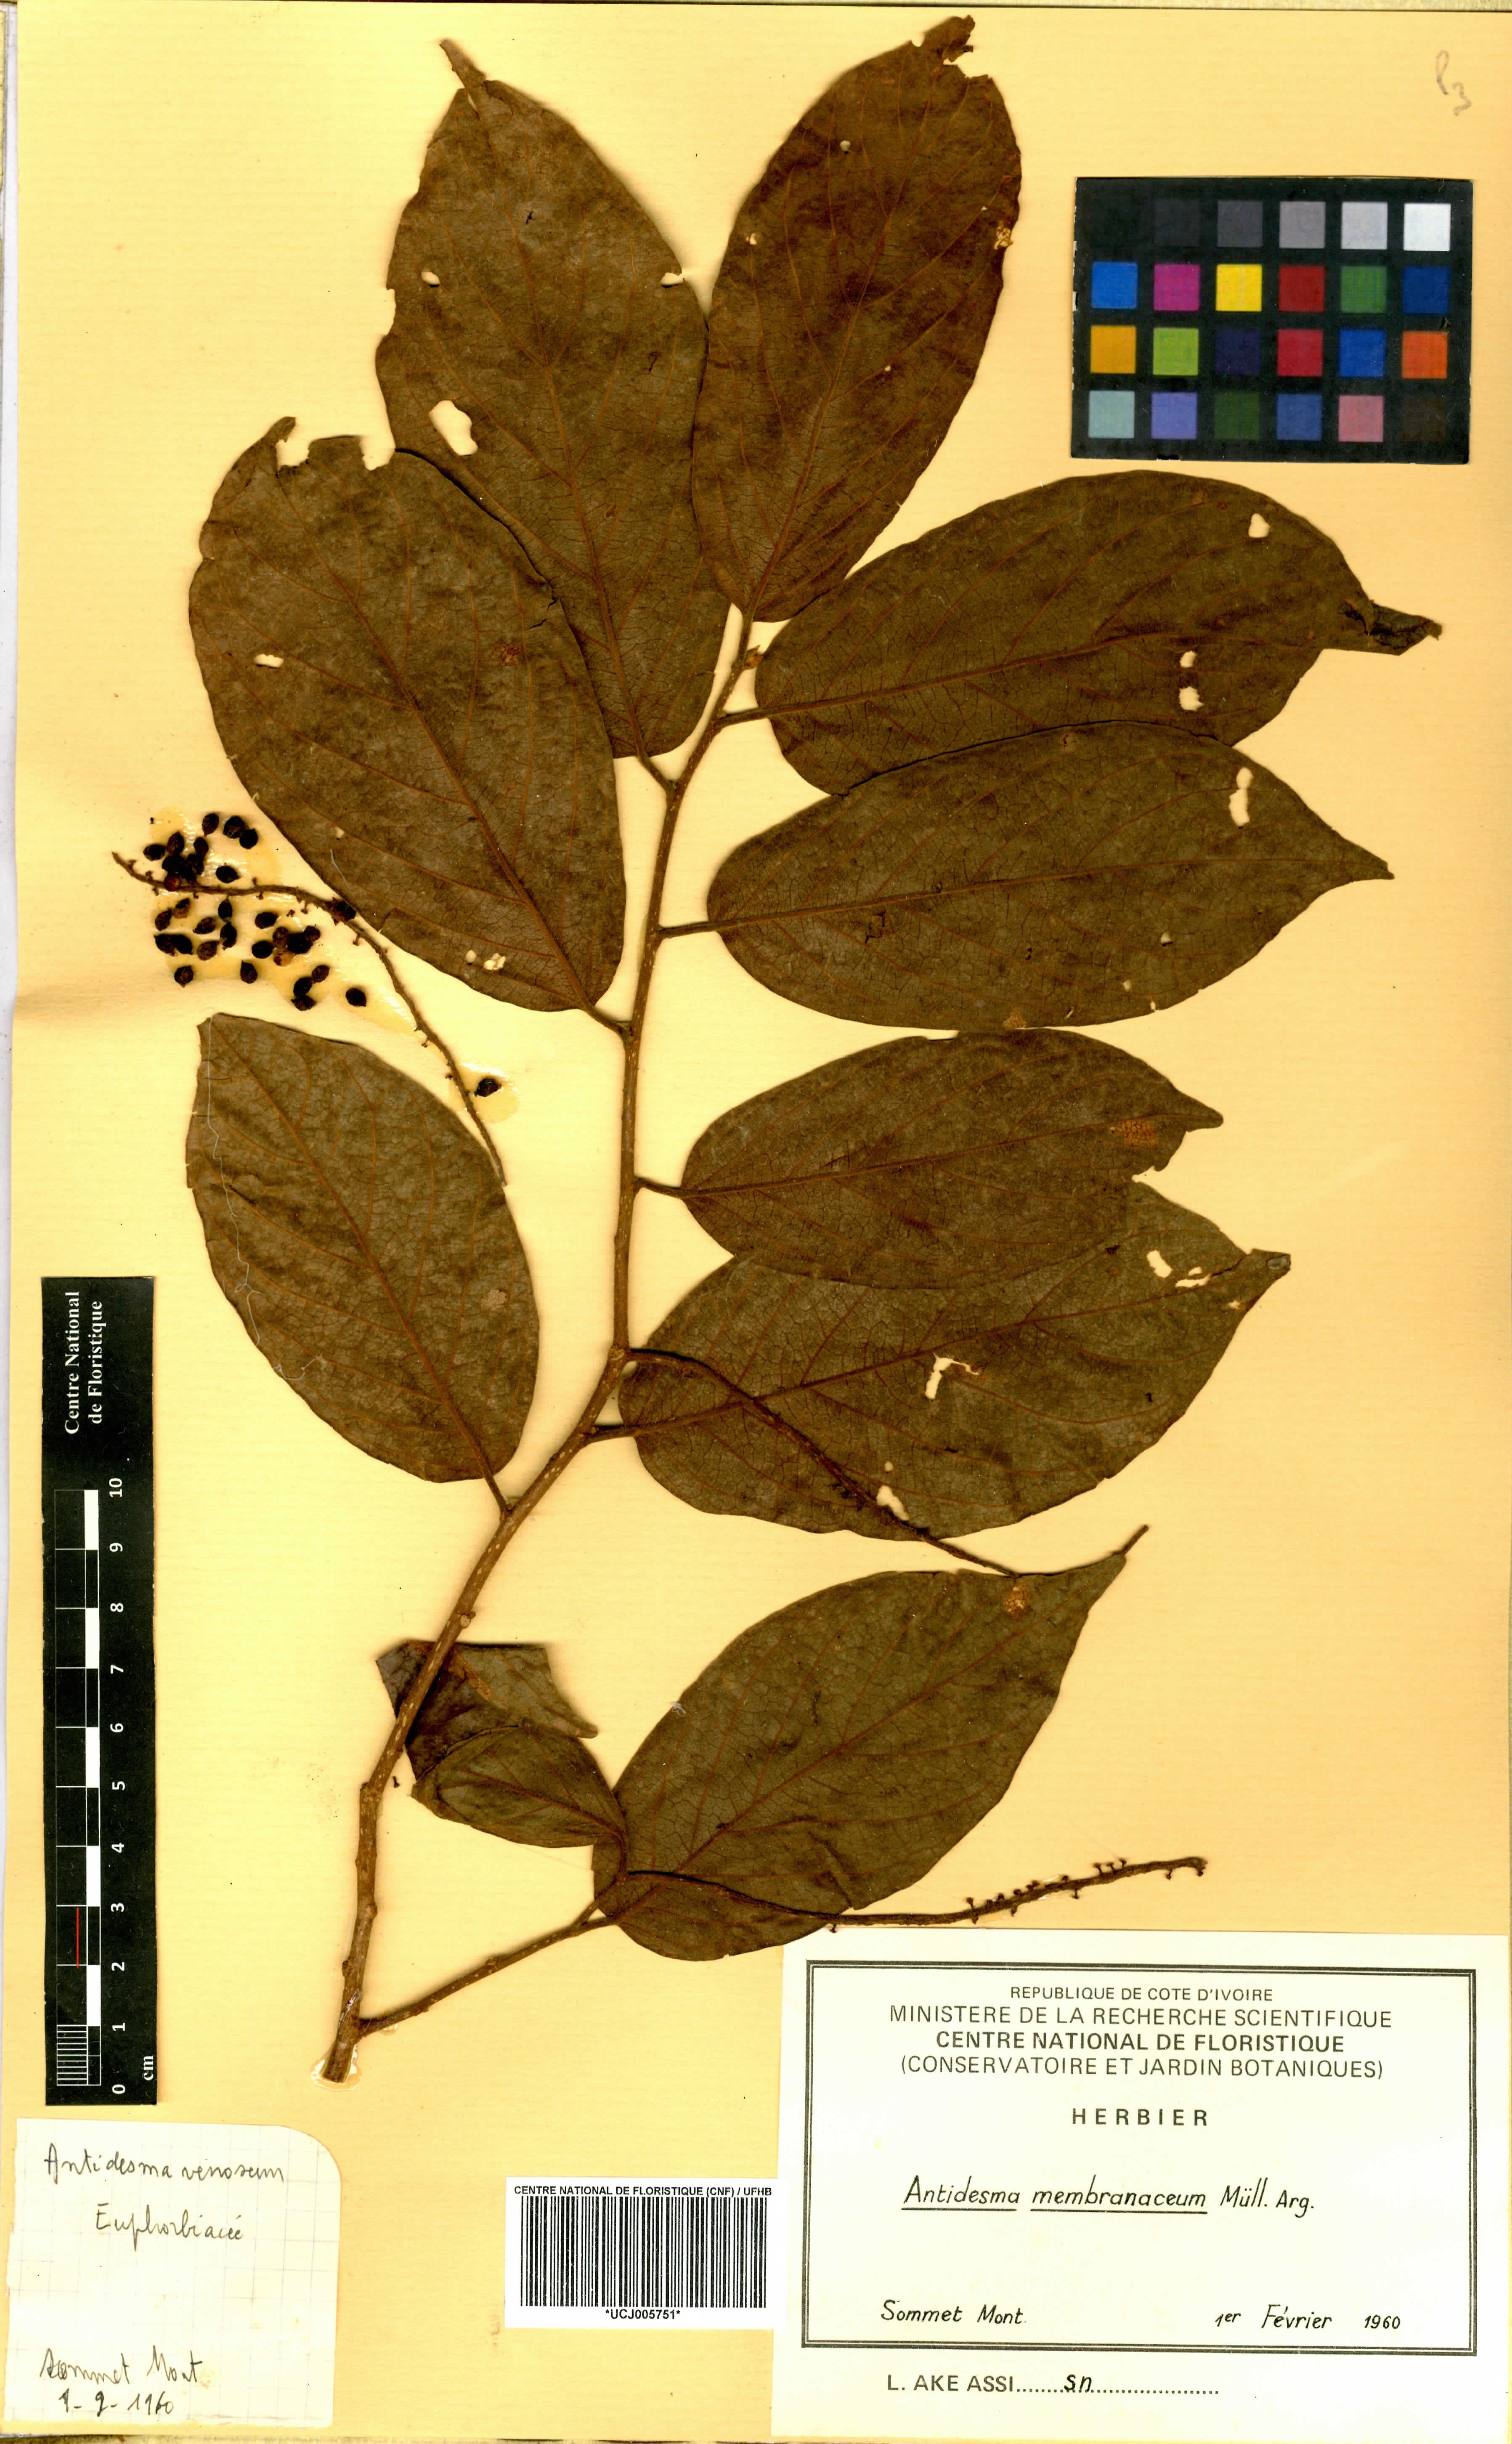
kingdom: Plantae
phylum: Tracheophyta
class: Magnoliopsida
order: Malpighiales
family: Phyllanthaceae
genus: Antidesma
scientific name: Antidesma membranaceum
